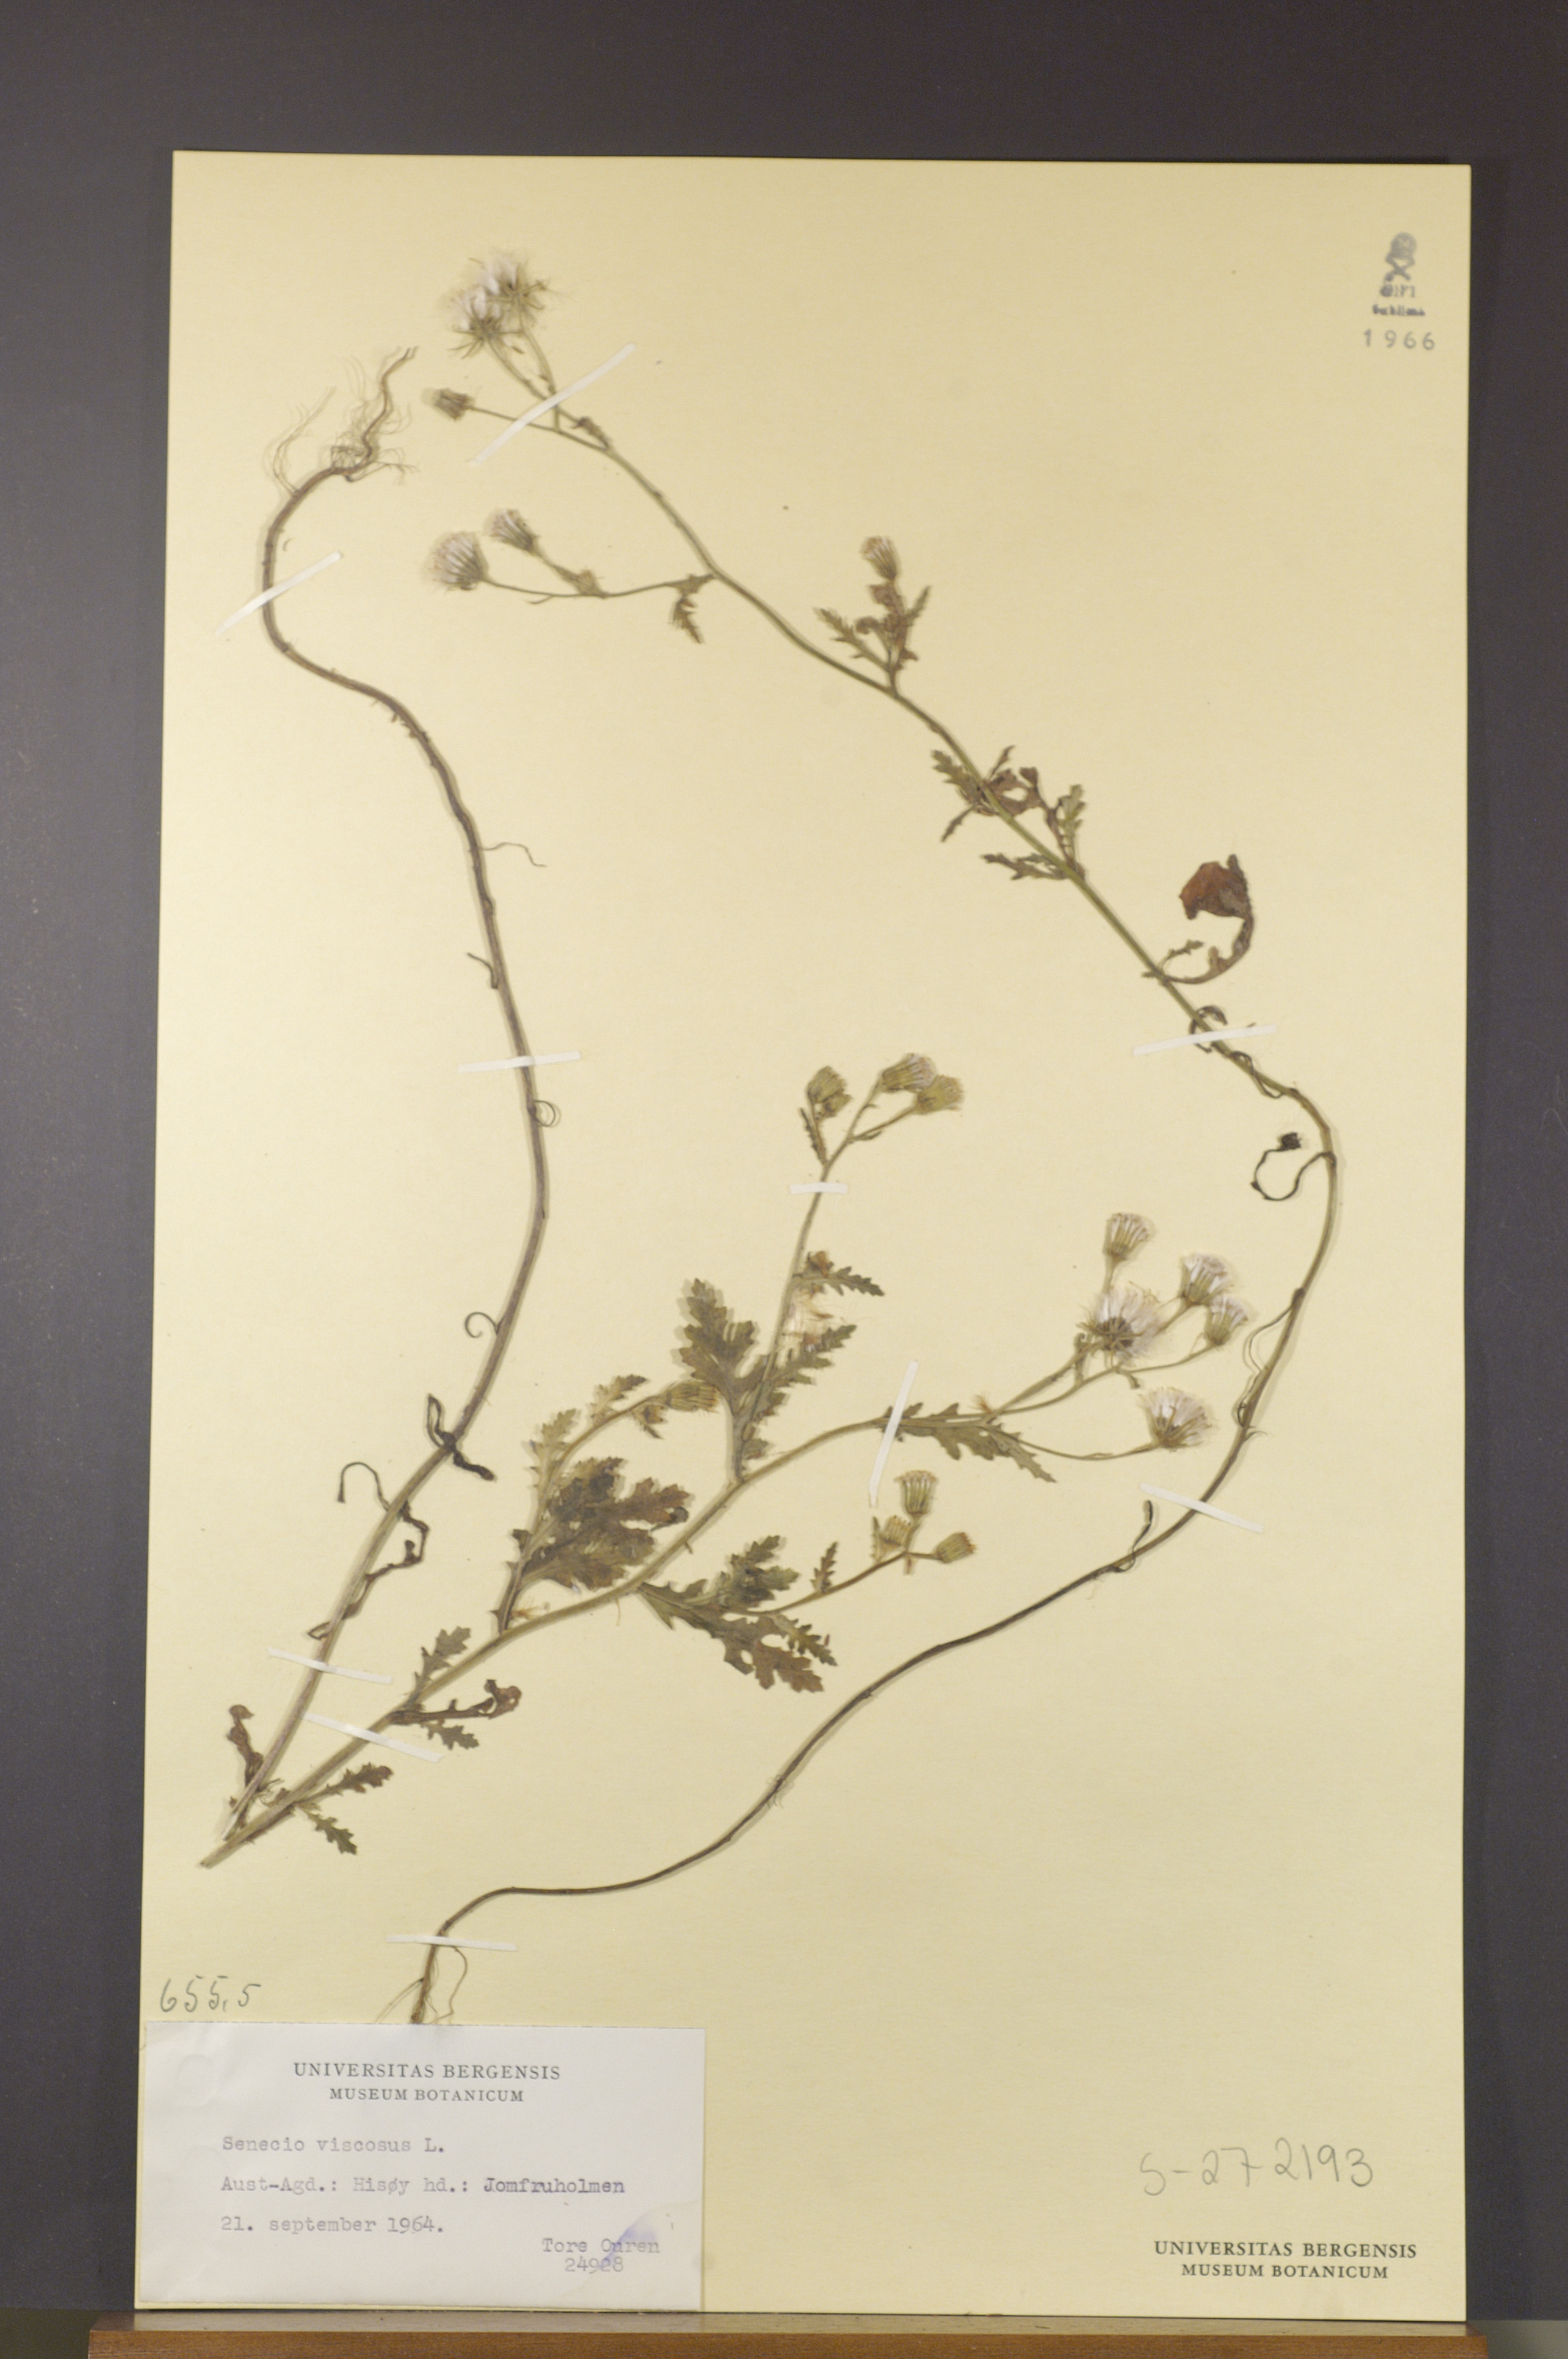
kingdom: Plantae
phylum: Tracheophyta
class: Magnoliopsida
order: Asterales
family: Asteraceae
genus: Senecio
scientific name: Senecio viscosus
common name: Sticky groundsel
